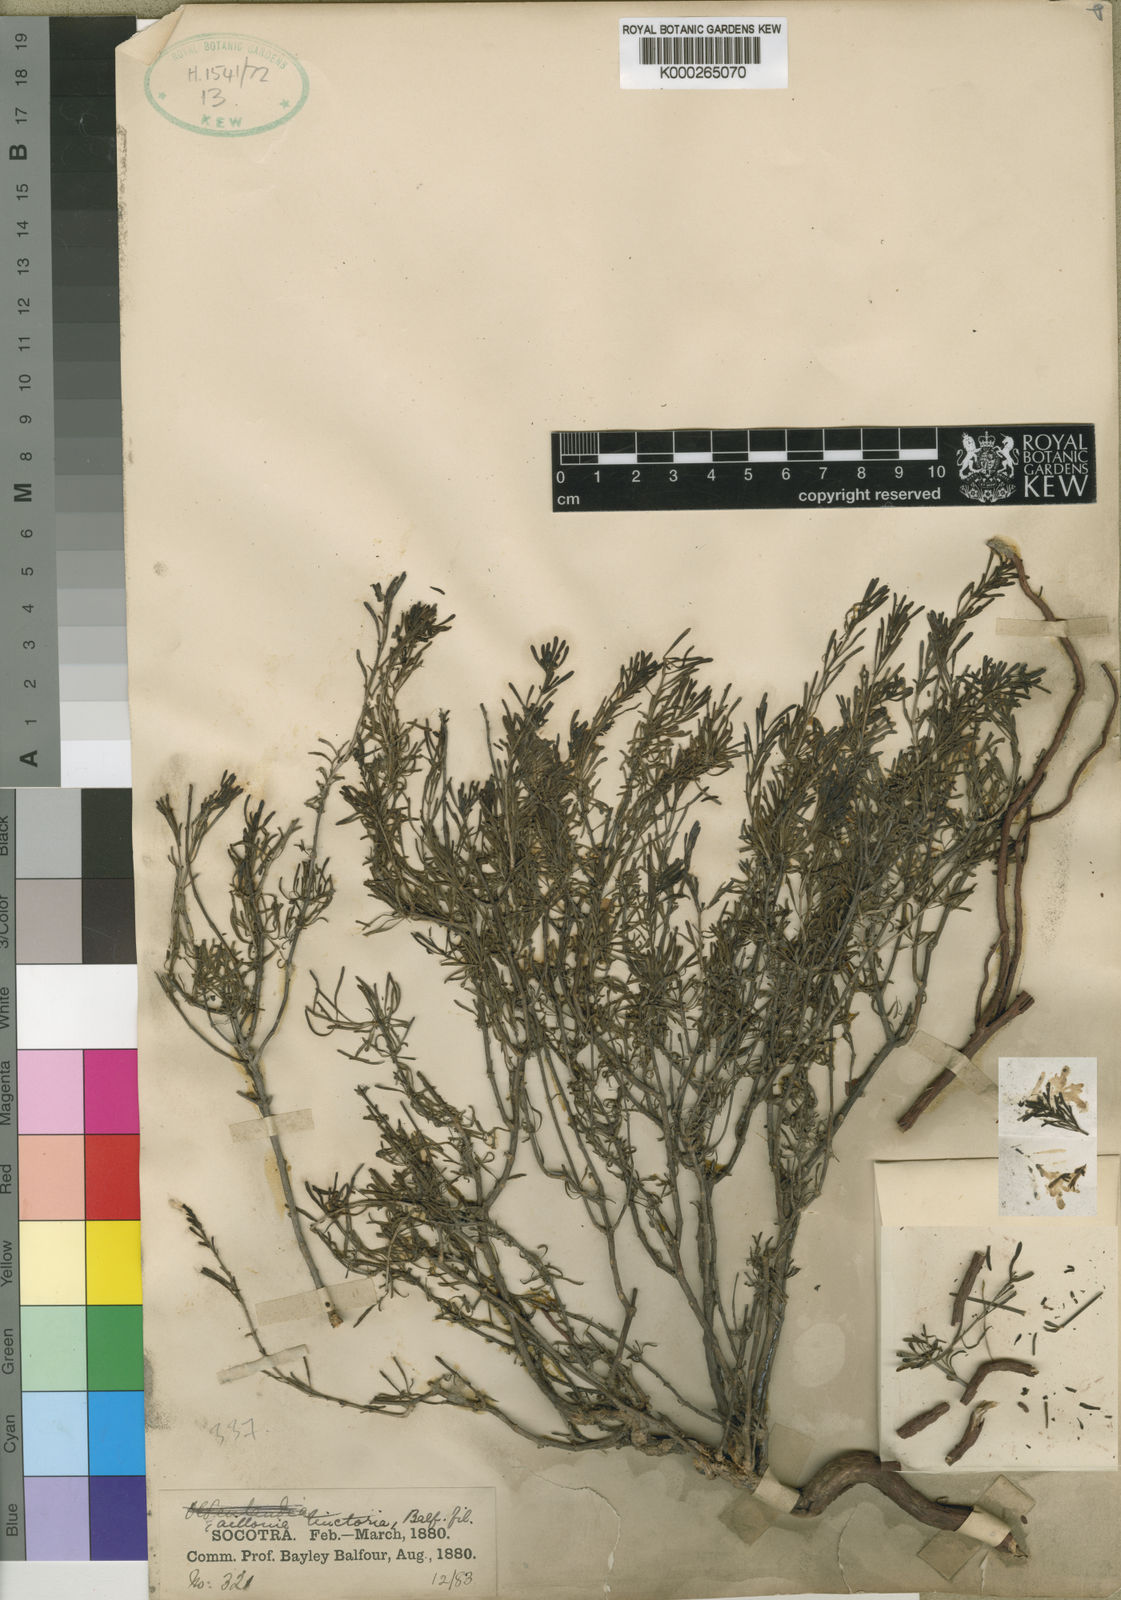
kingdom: Plantae
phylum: Tracheophyta
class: Magnoliopsida
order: Gentianales
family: Rubiaceae
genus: Plocama
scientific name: Plocama tinctoria
